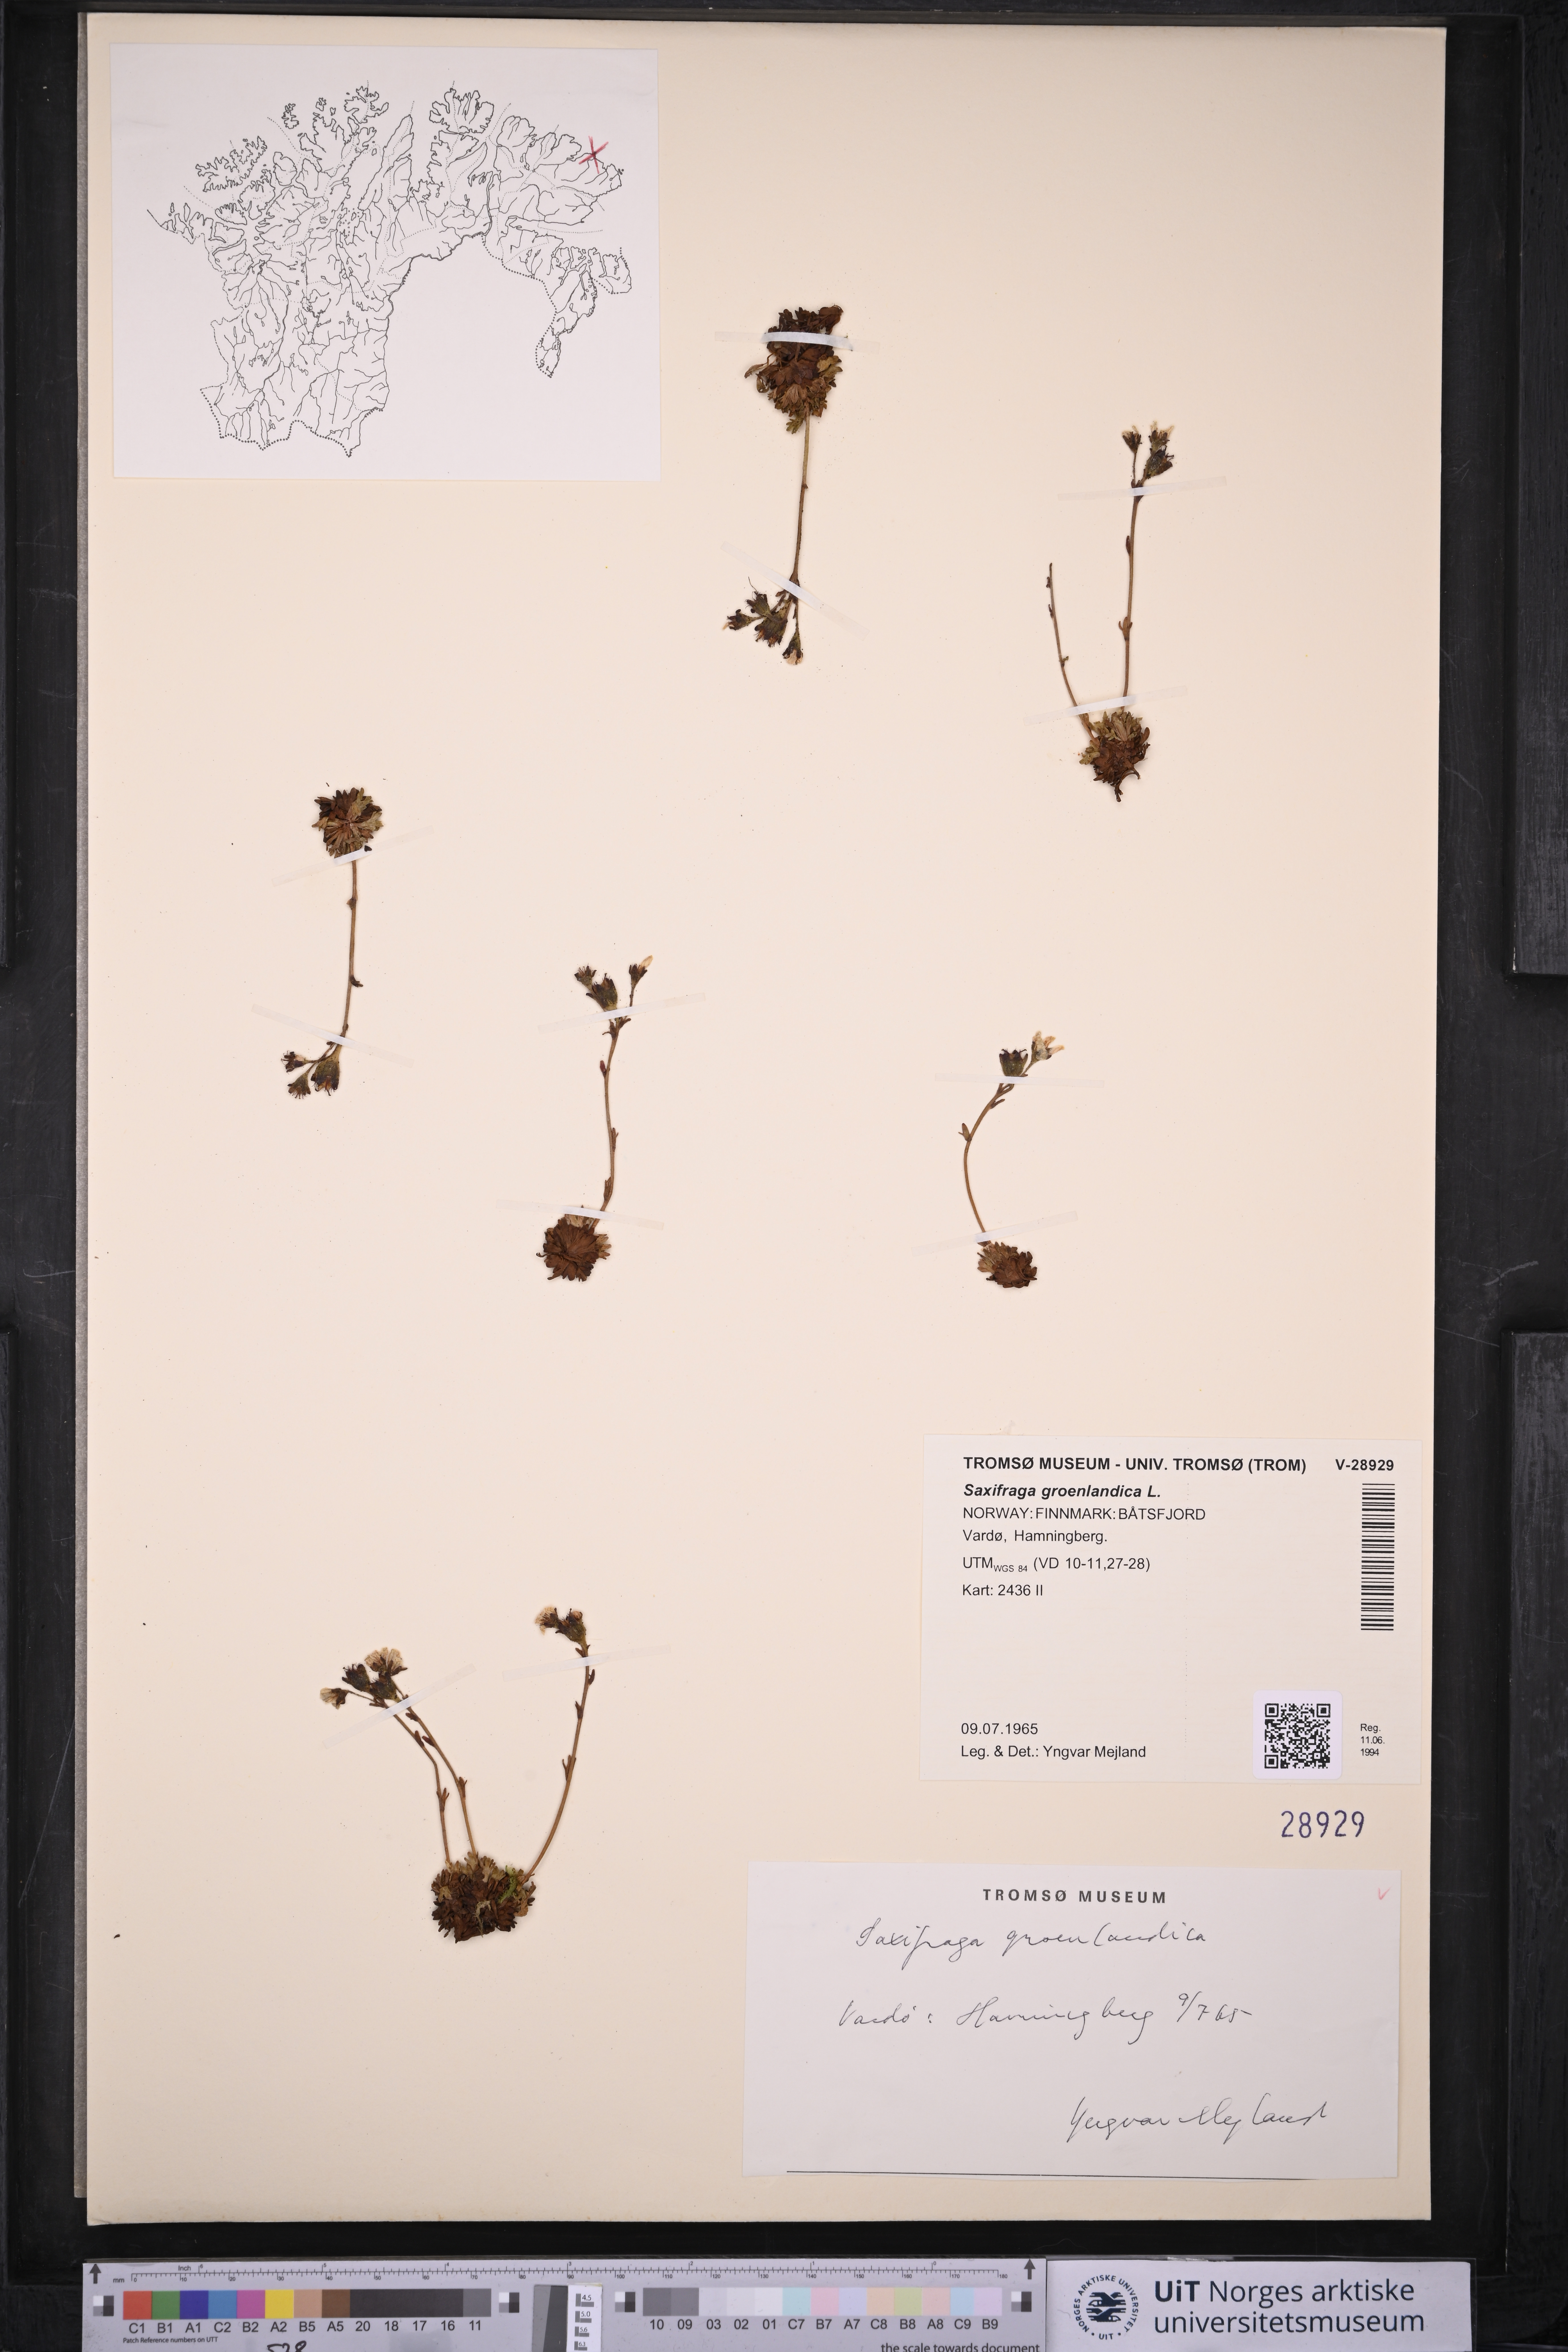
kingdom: Plantae
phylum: Tracheophyta
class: Magnoliopsida
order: Saxifragales
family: Saxifragaceae
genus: Saxifraga
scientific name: Saxifraga cespitosa
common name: Tufted saxifrage
